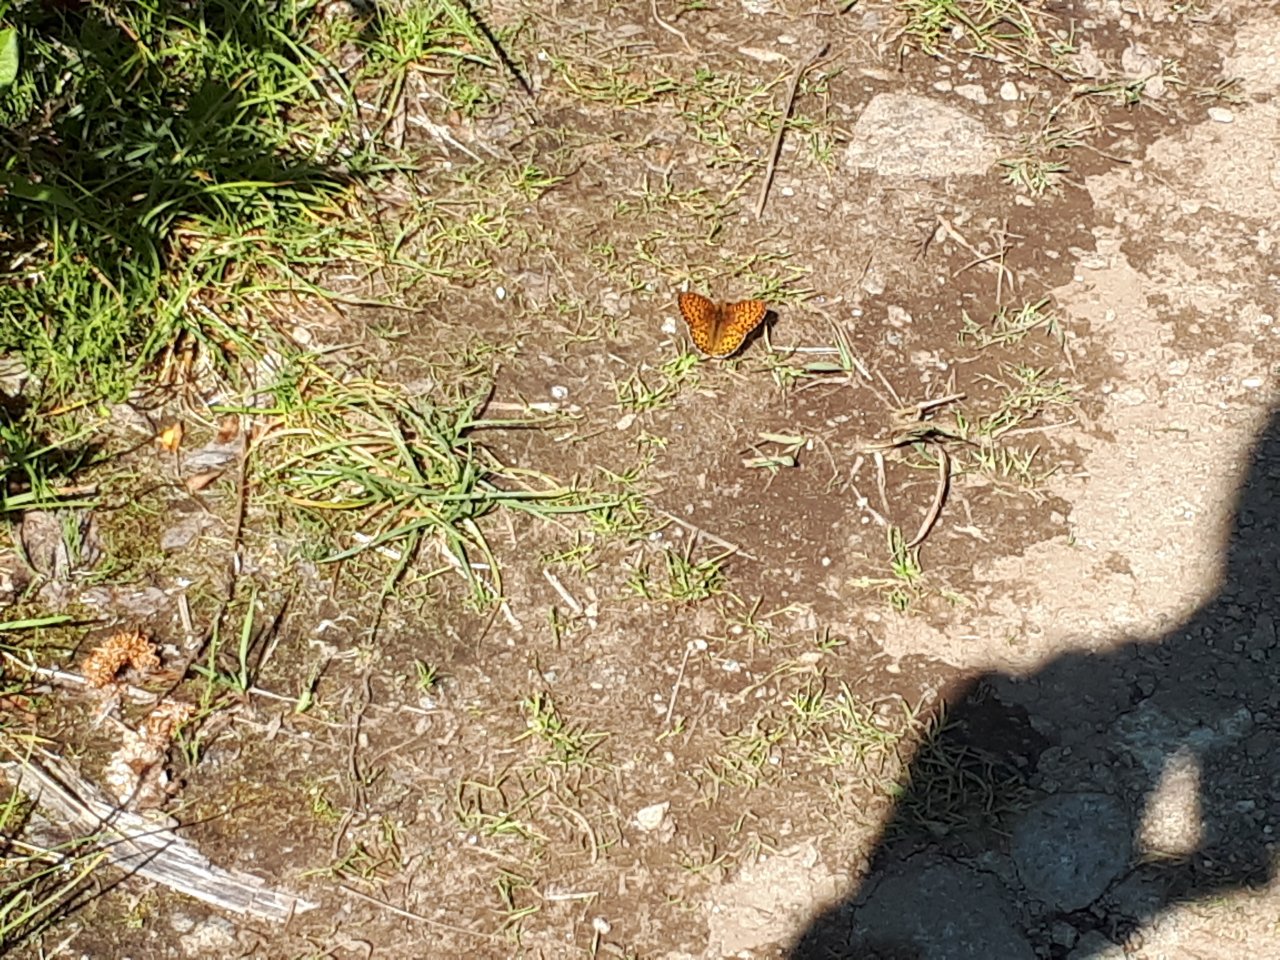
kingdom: Animalia
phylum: Arthropoda
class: Insecta
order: Lepidoptera
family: Nymphalidae
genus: Speyeria
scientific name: Speyeria mormonia
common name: Mormon Fritillary
